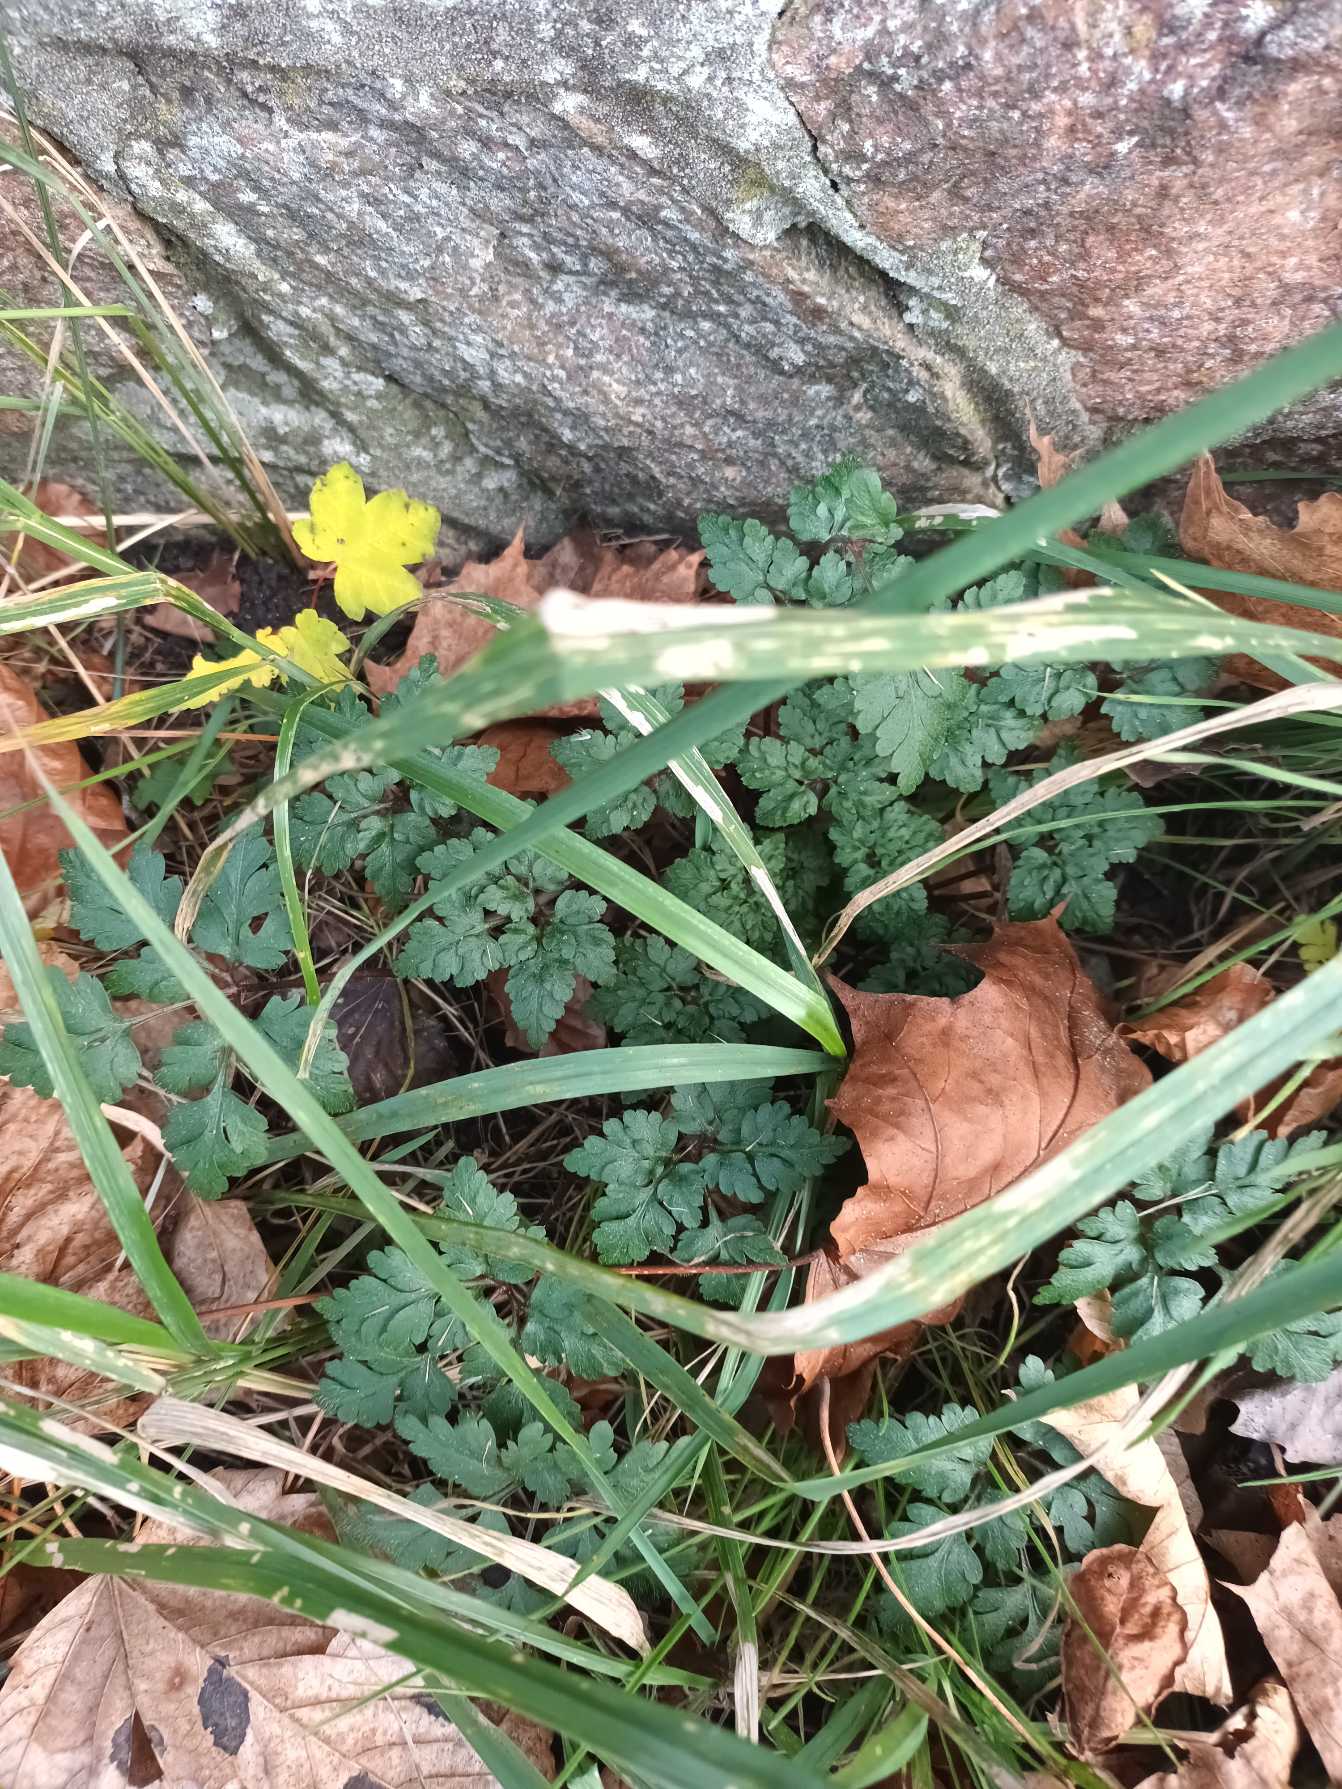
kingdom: Plantae
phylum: Tracheophyta
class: Magnoliopsida
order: Geraniales
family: Geraniaceae
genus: Geranium
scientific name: Geranium robertianum
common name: Stinkende storkenæb
